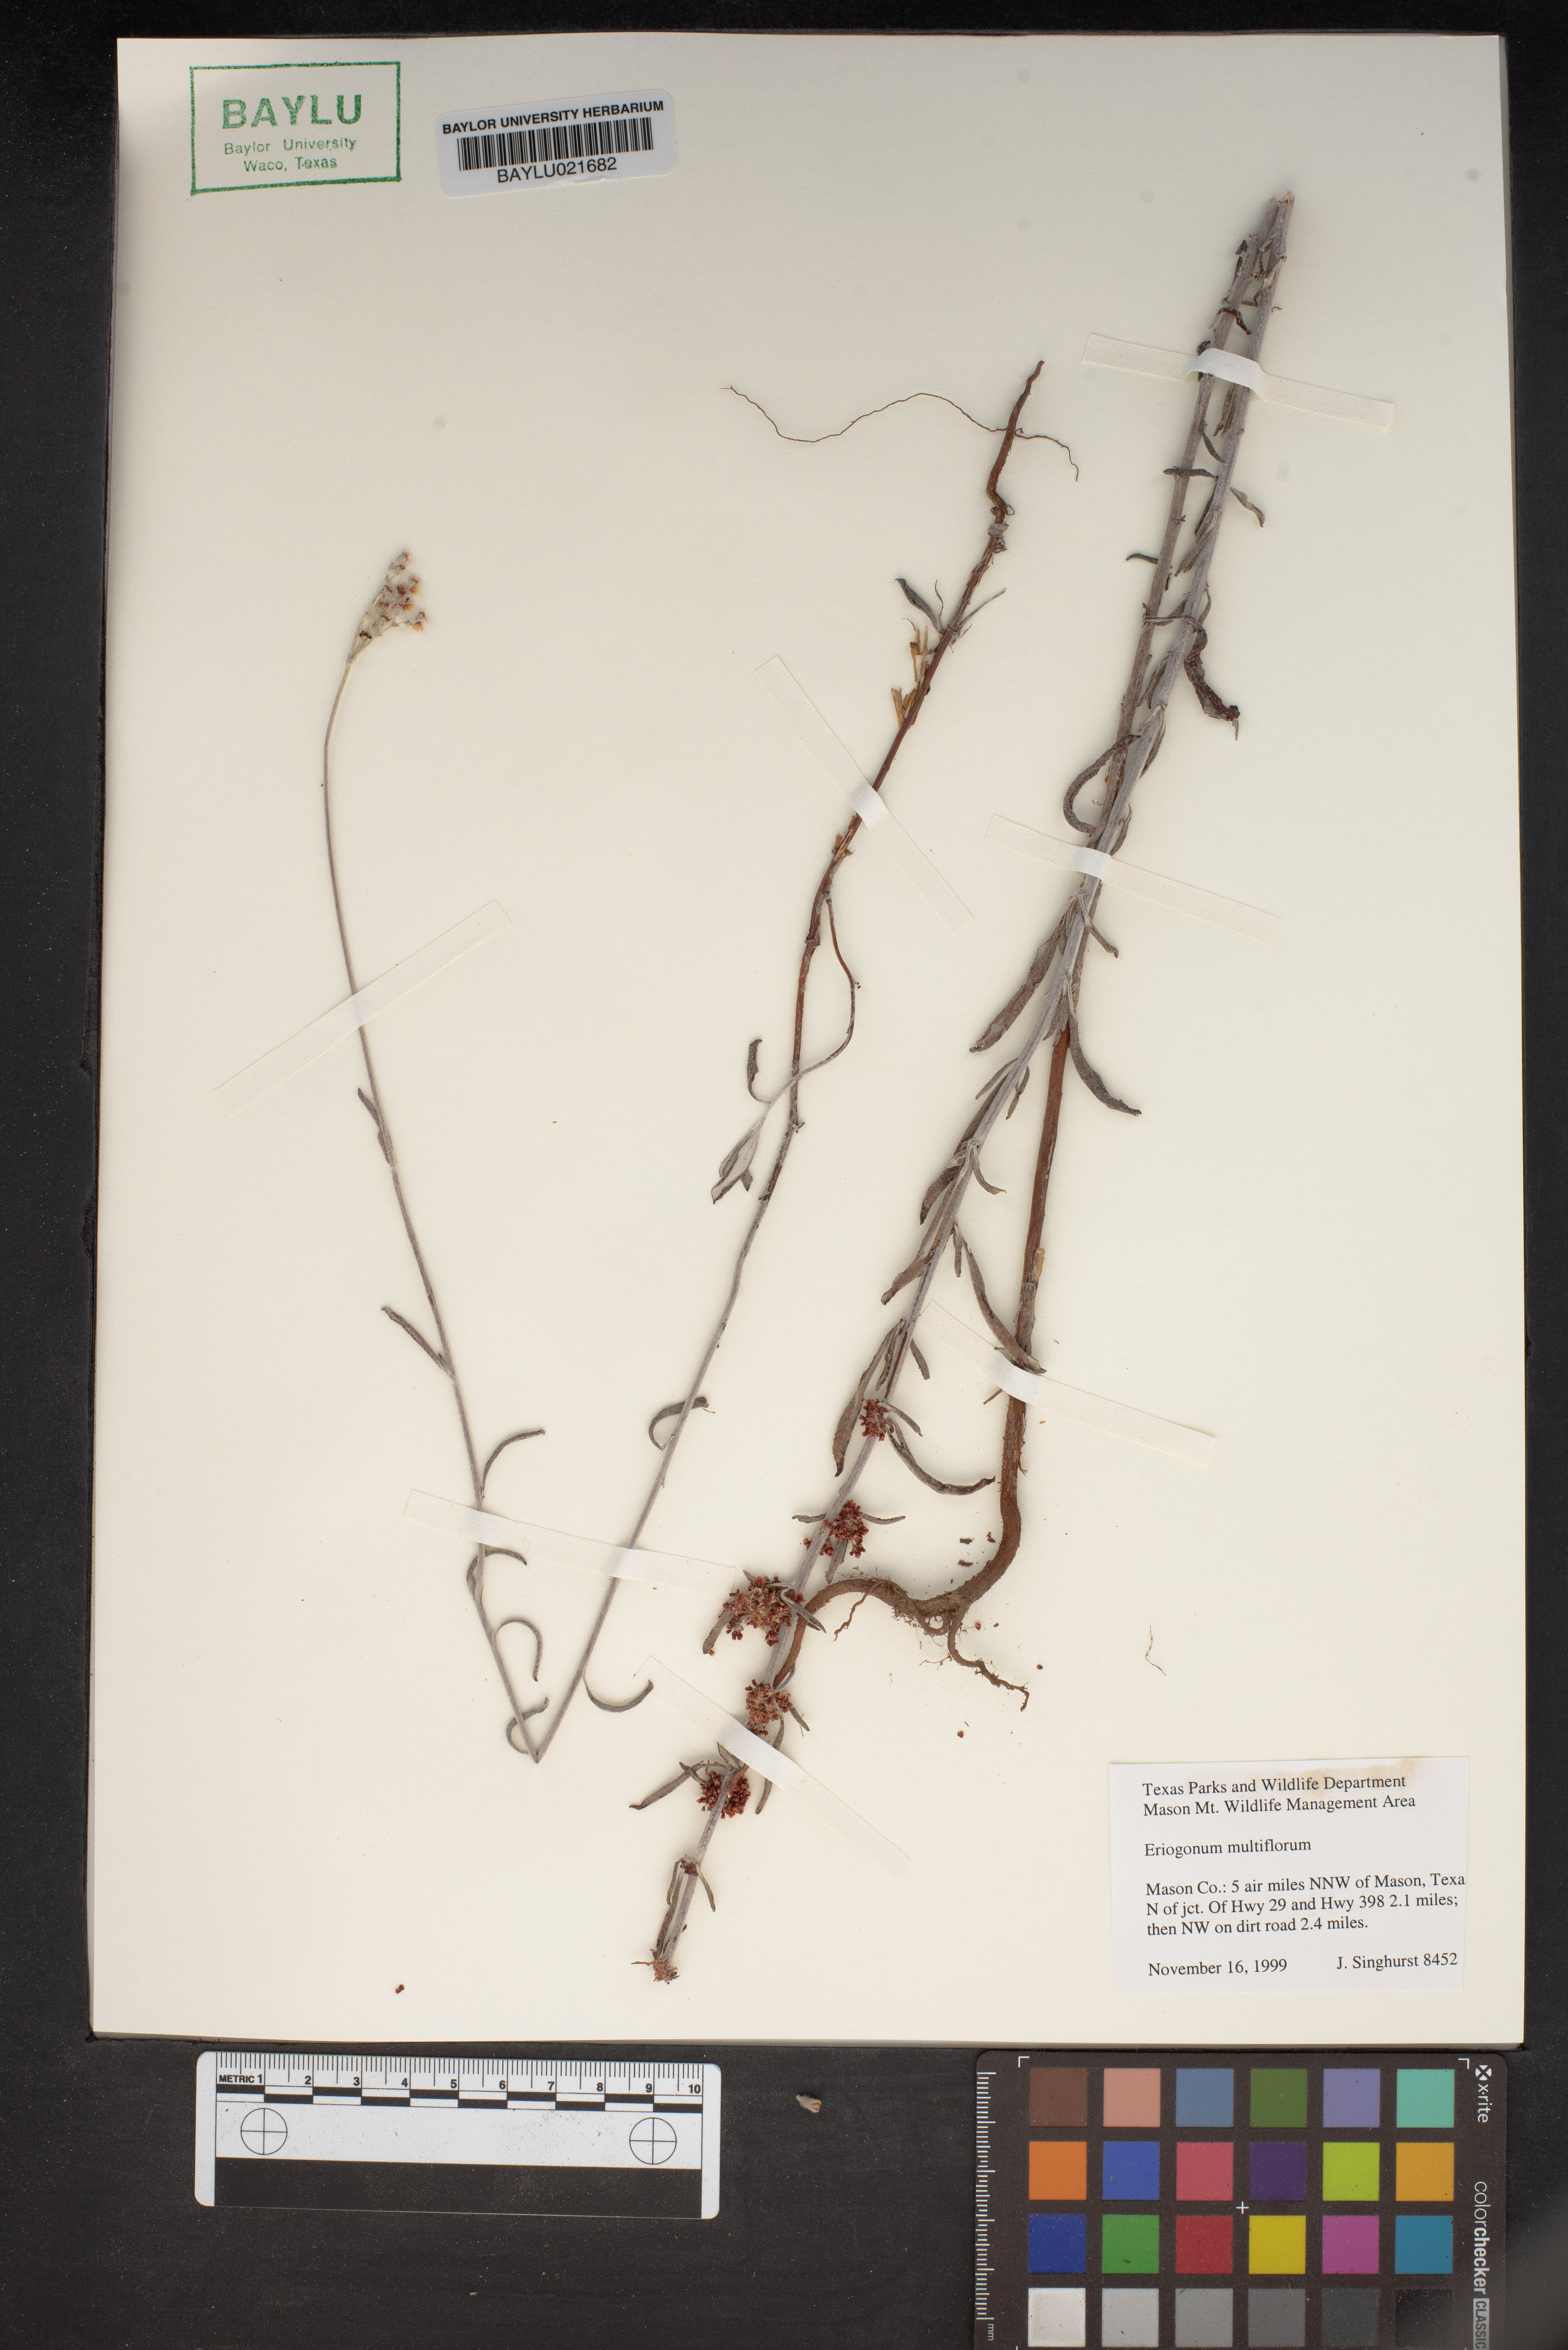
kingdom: Plantae
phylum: Tracheophyta
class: Magnoliopsida
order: Caryophyllales
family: Polygonaceae
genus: Eriogonum
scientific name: Eriogonum multiflorum
